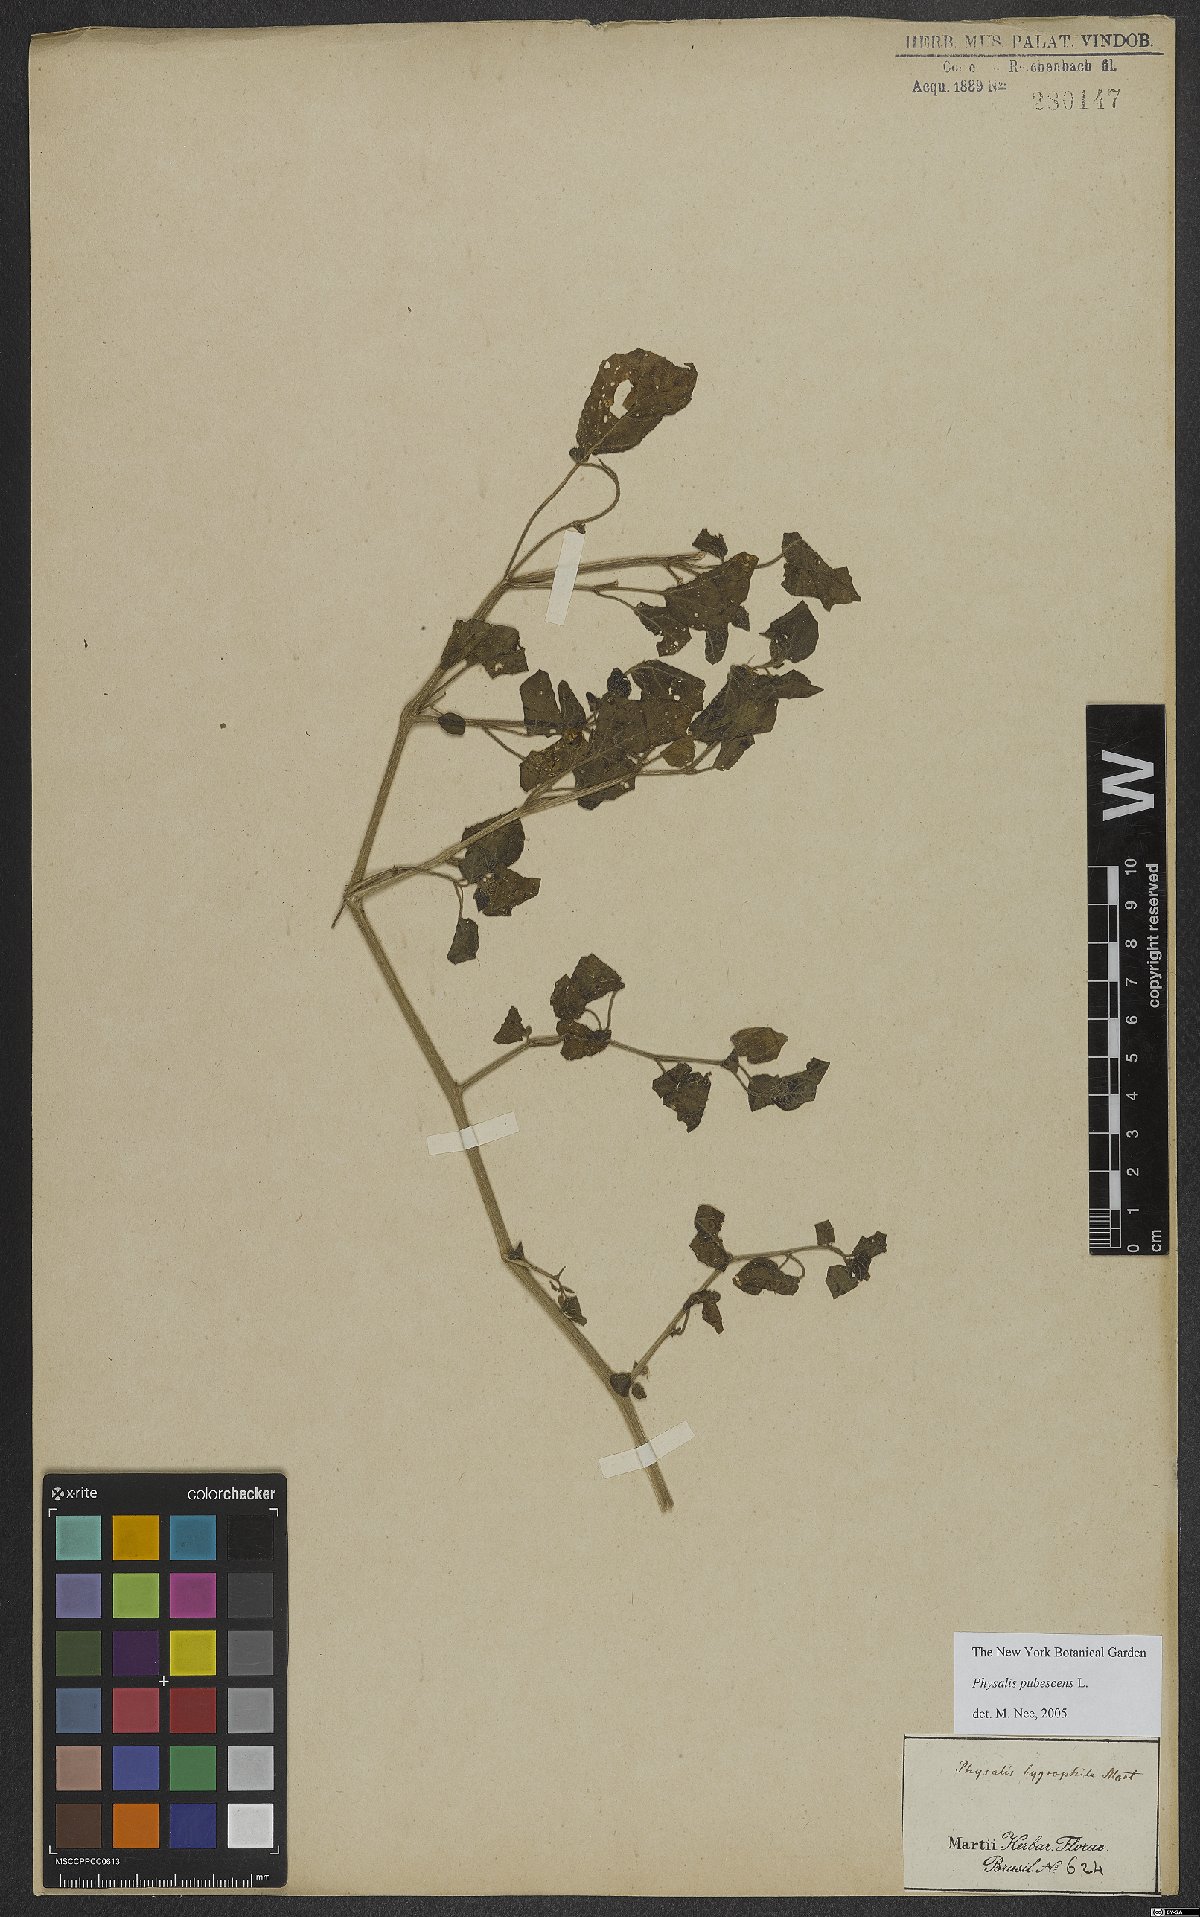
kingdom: Plantae
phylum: Tracheophyta
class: Magnoliopsida
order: Solanales
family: Solanaceae
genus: Physalis
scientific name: Physalis pubescens
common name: Downy ground-cherry
